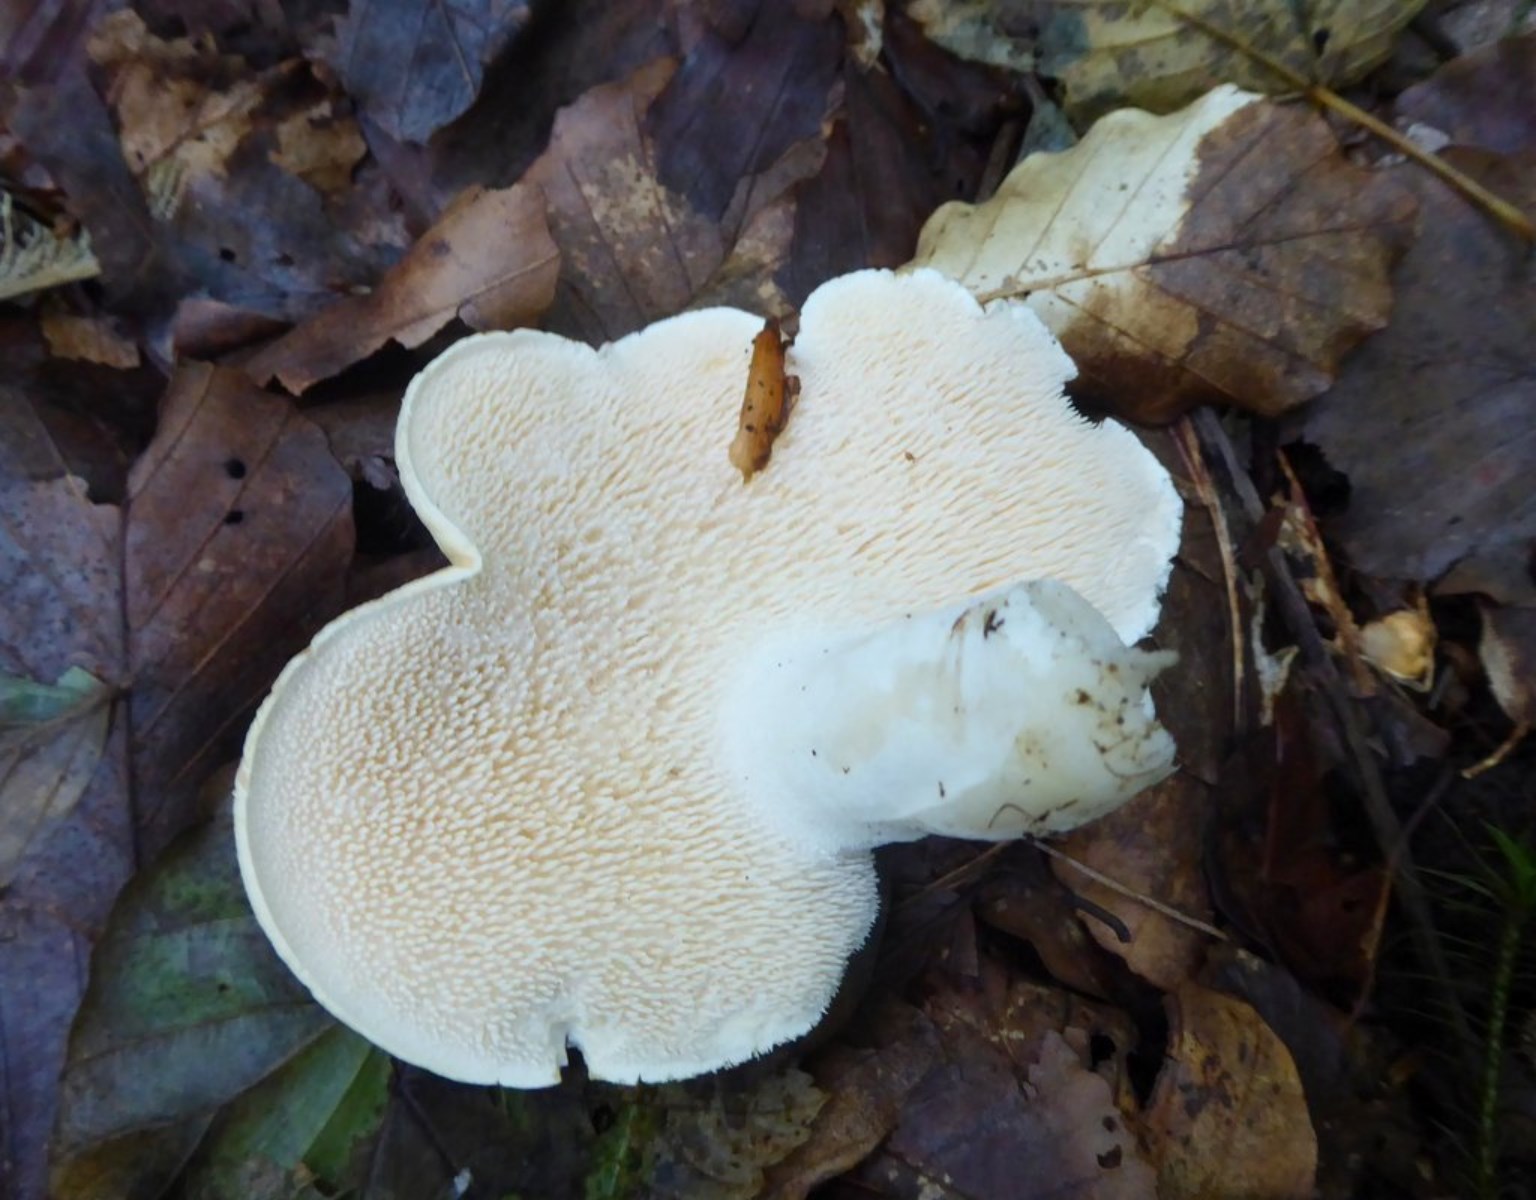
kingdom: Fungi
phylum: Basidiomycota
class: Agaricomycetes
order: Cantharellales
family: Hydnaceae
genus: Hydnum
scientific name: Hydnum repandum
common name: almindelig pigsvamp
